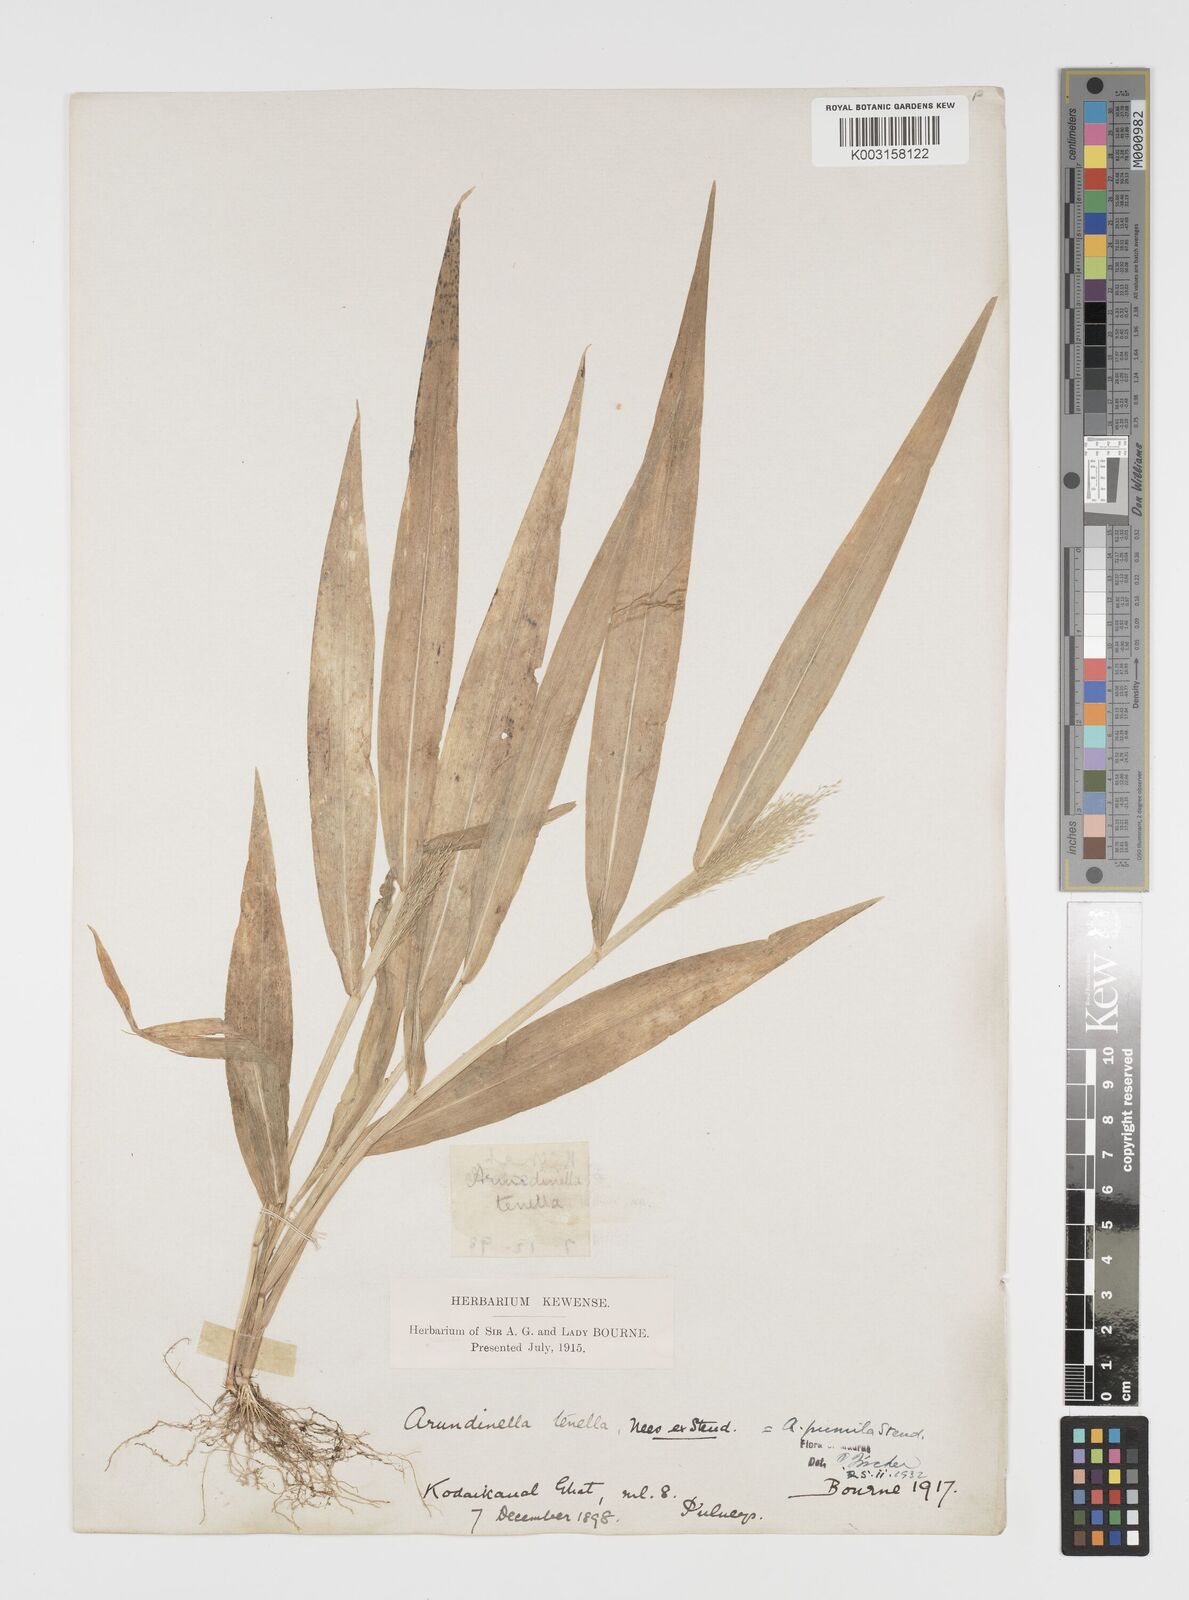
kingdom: Plantae
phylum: Tracheophyta
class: Liliopsida
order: Poales
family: Poaceae
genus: Arundinella
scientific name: Arundinella pumila
